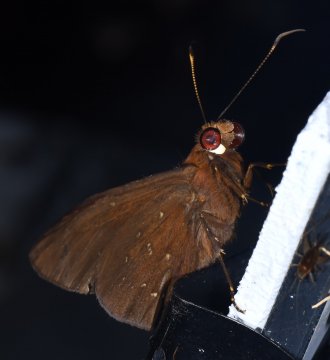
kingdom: Animalia
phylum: Arthropoda
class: Insecta
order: Lepidoptera
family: Hesperiidae
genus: Bungalotis
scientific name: Bungalotis midas
